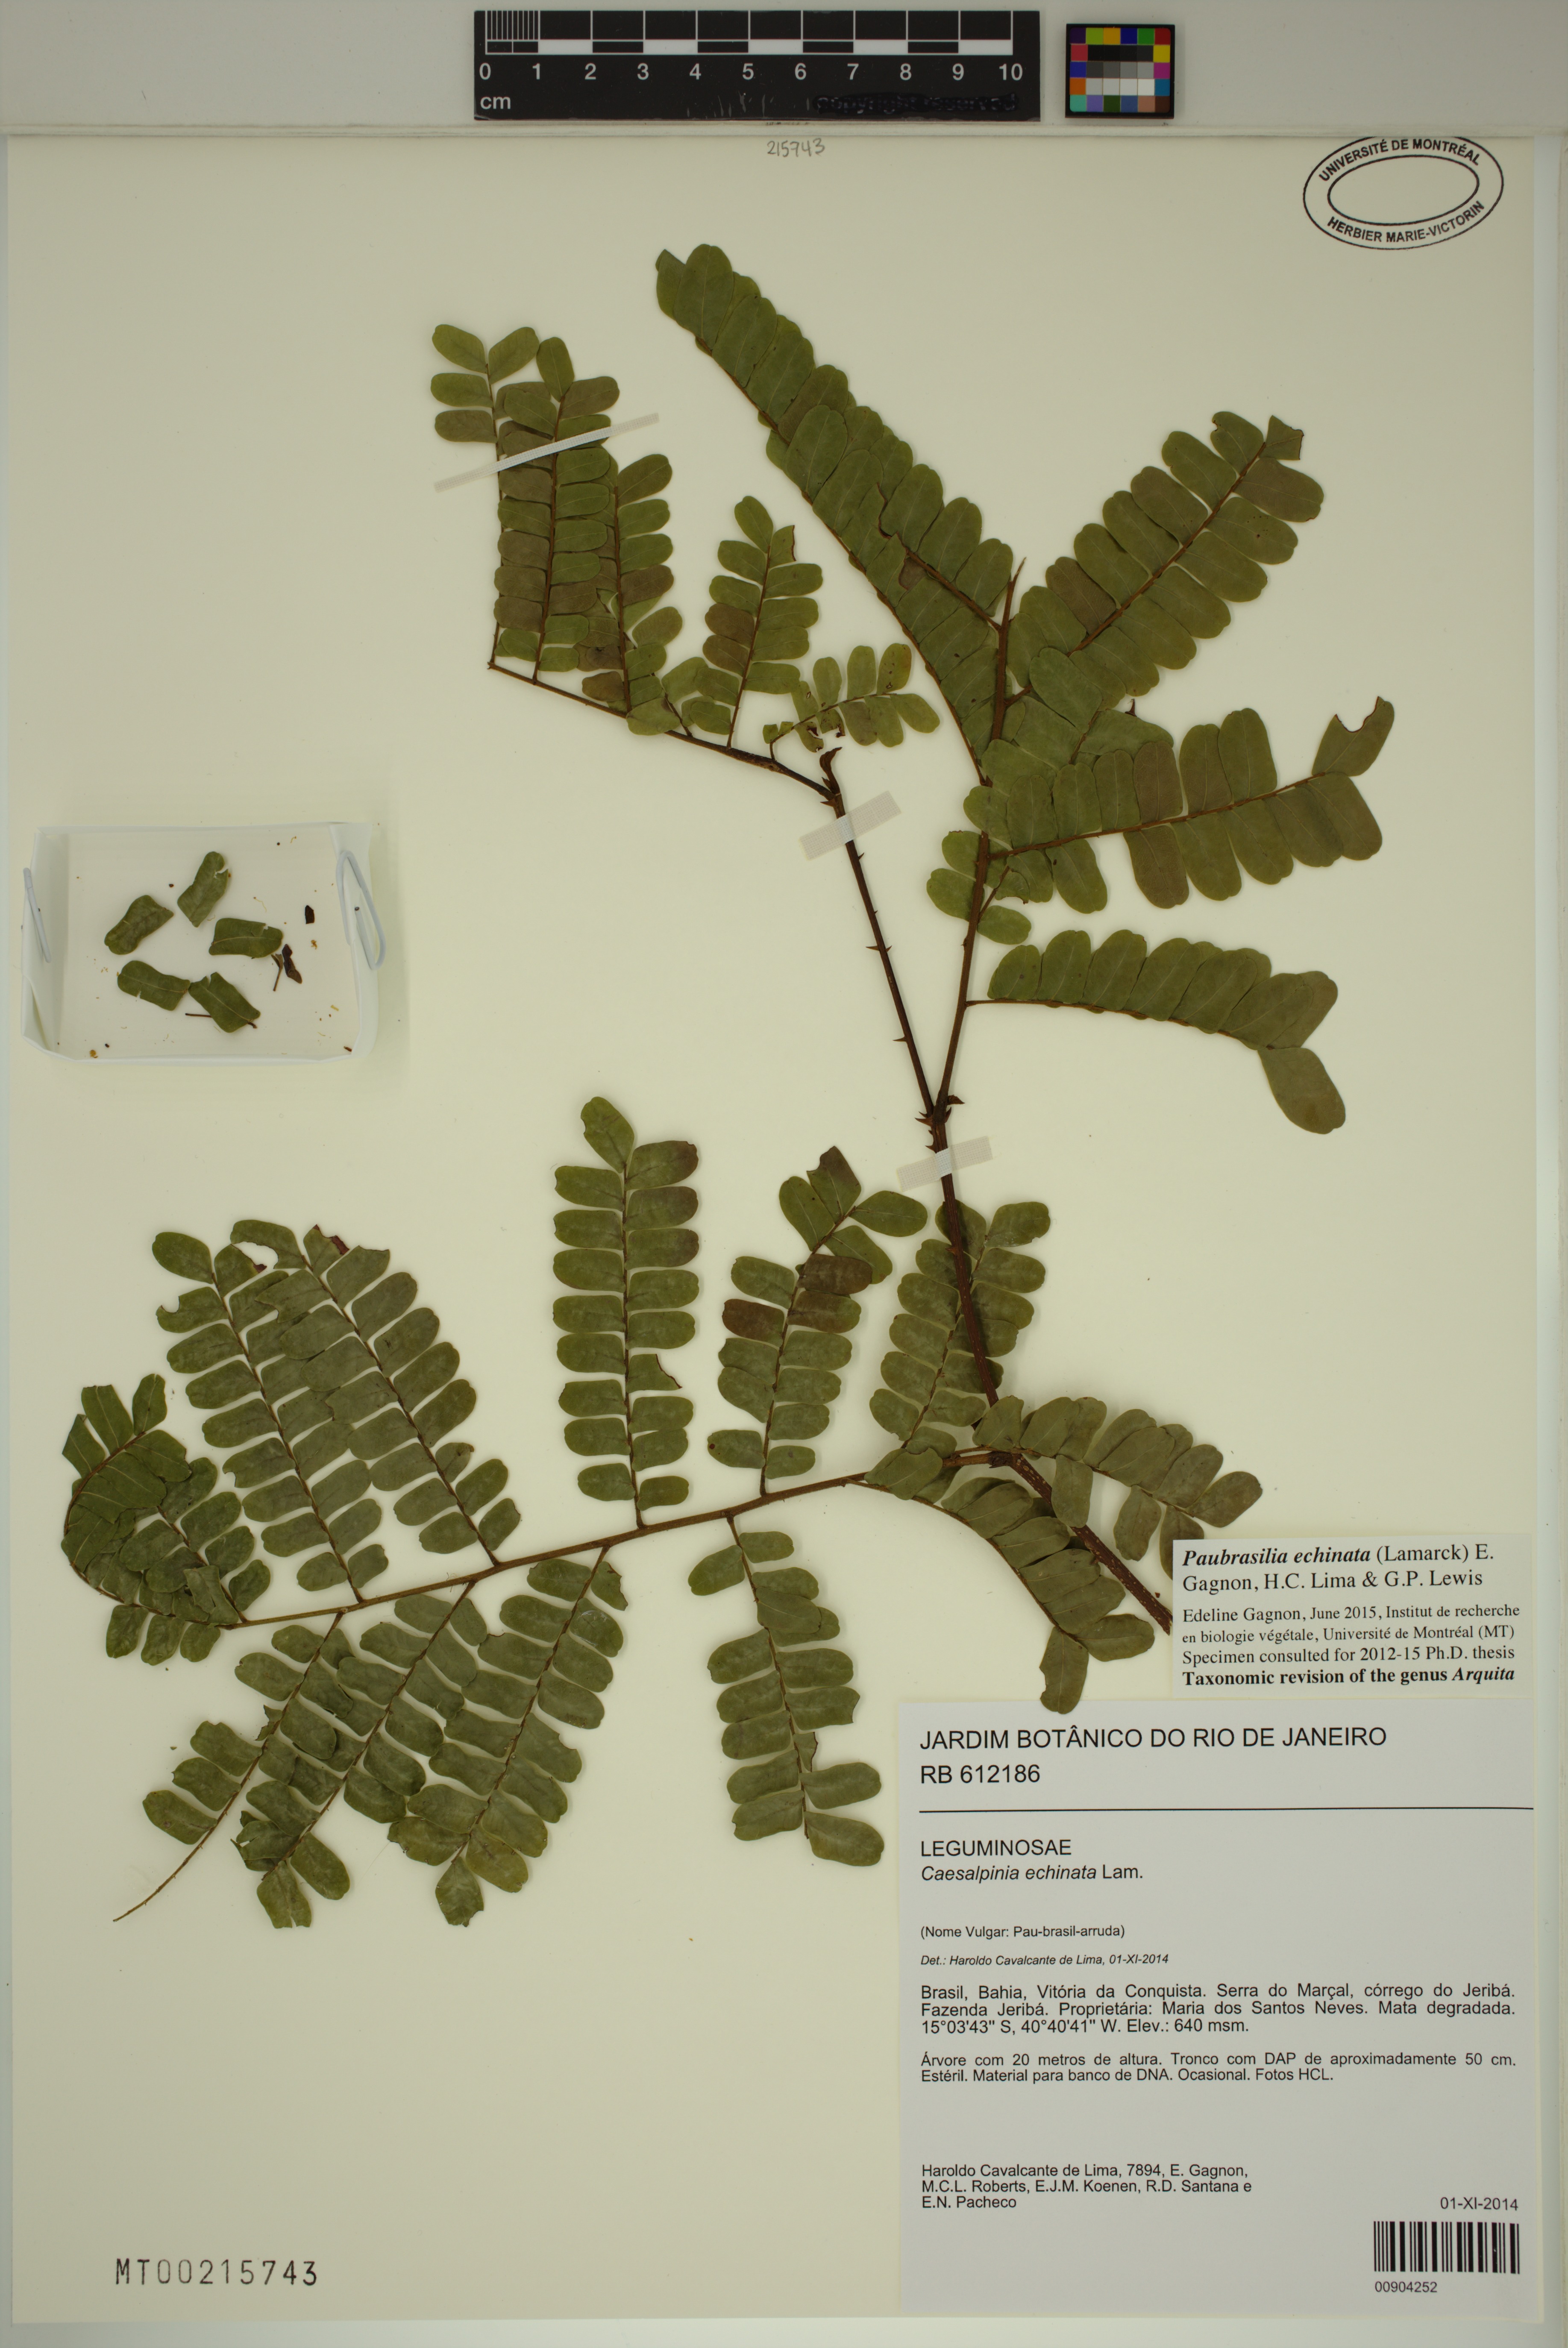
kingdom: Plantae
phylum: Tracheophyta
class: Magnoliopsida
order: Fabales
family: Fabaceae
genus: Paubrasilia
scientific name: Paubrasilia echinata
